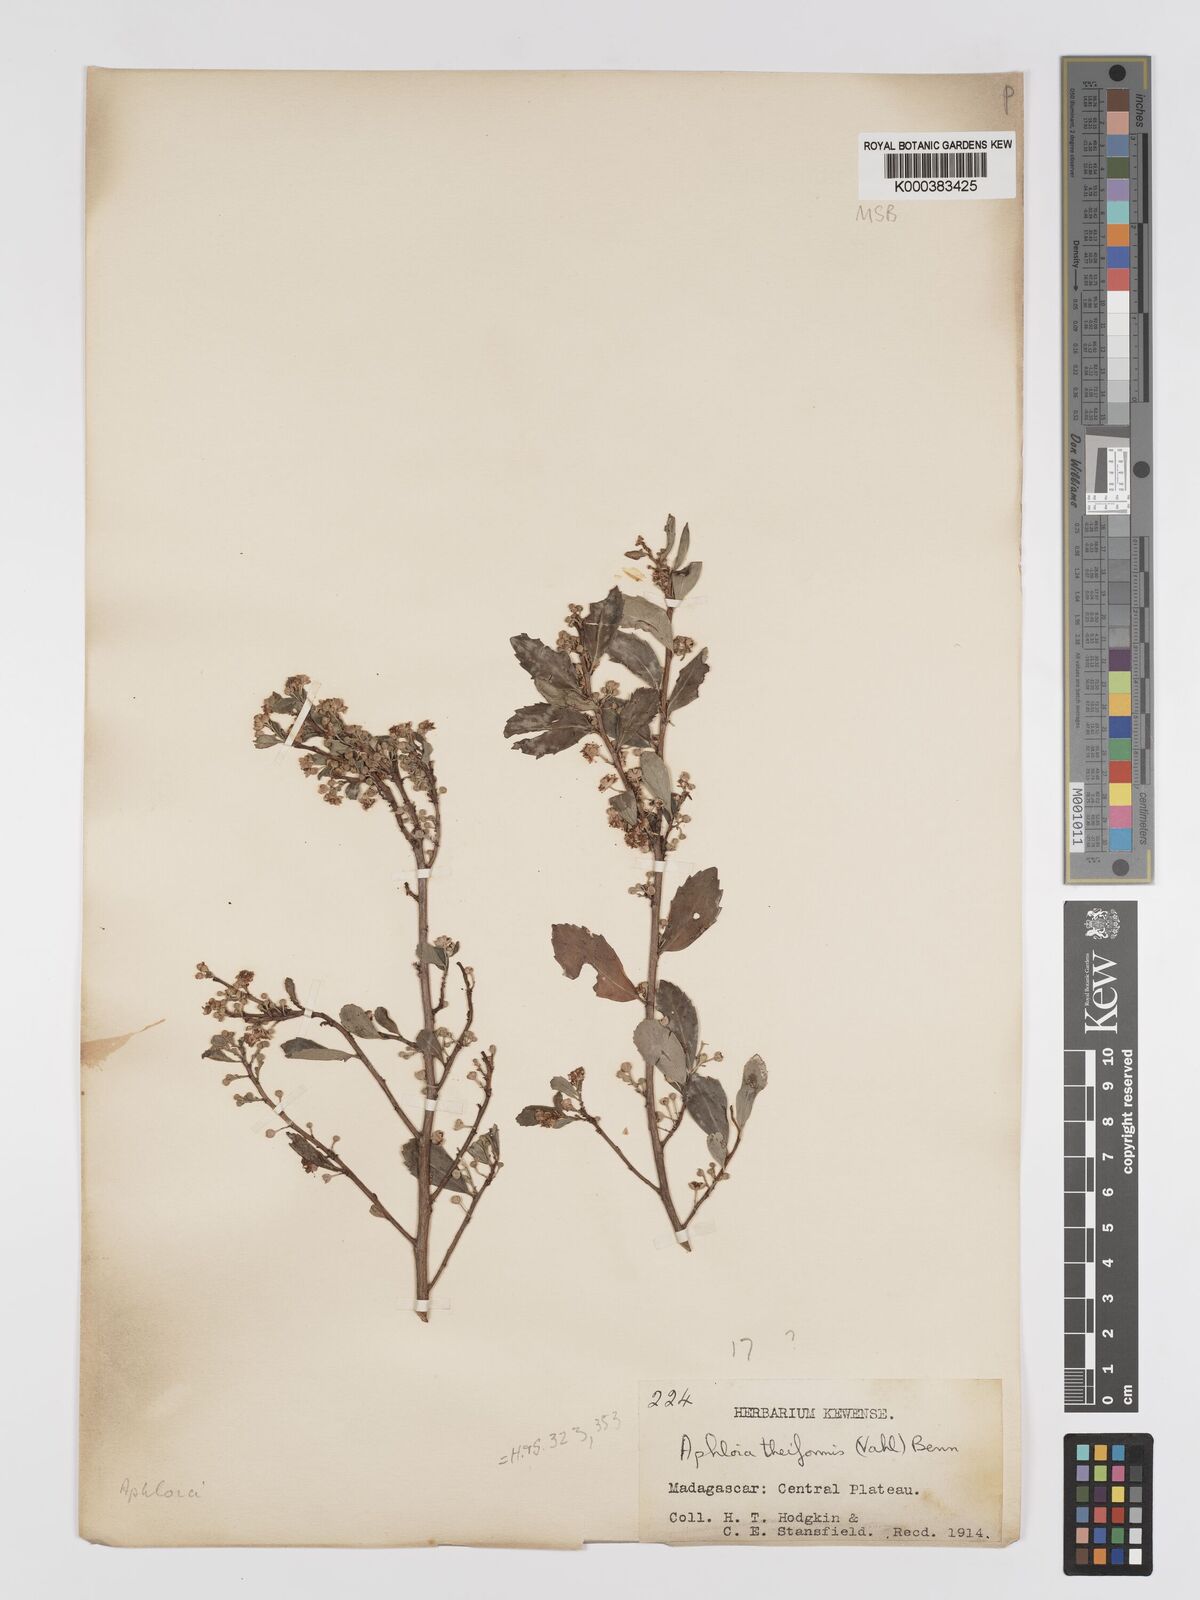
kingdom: Plantae
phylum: Tracheophyta
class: Magnoliopsida
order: Crossosomatales
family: Aphloiaceae
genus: Aphloia
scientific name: Aphloia theiformis
